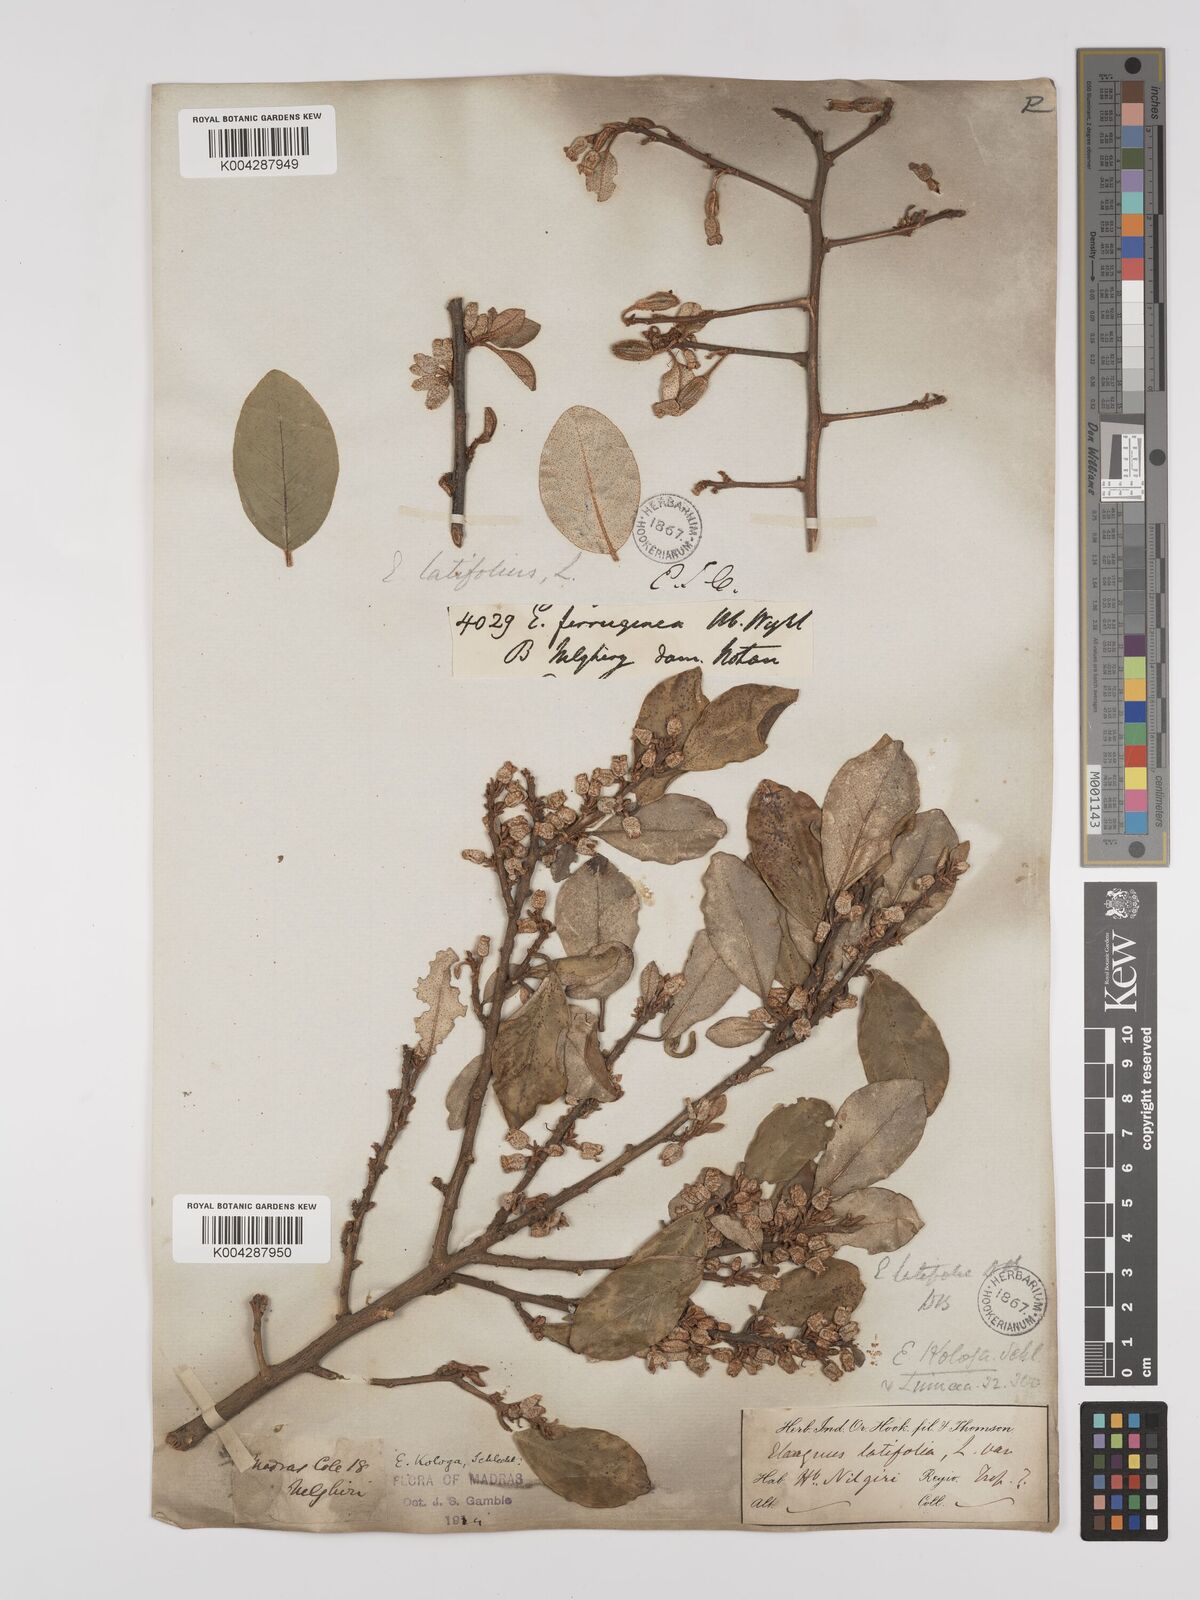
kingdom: Plantae
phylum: Tracheophyta
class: Magnoliopsida
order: Rosales
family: Elaeagnaceae
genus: Elaeagnus
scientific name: Elaeagnus latifolia
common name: Oleaster
